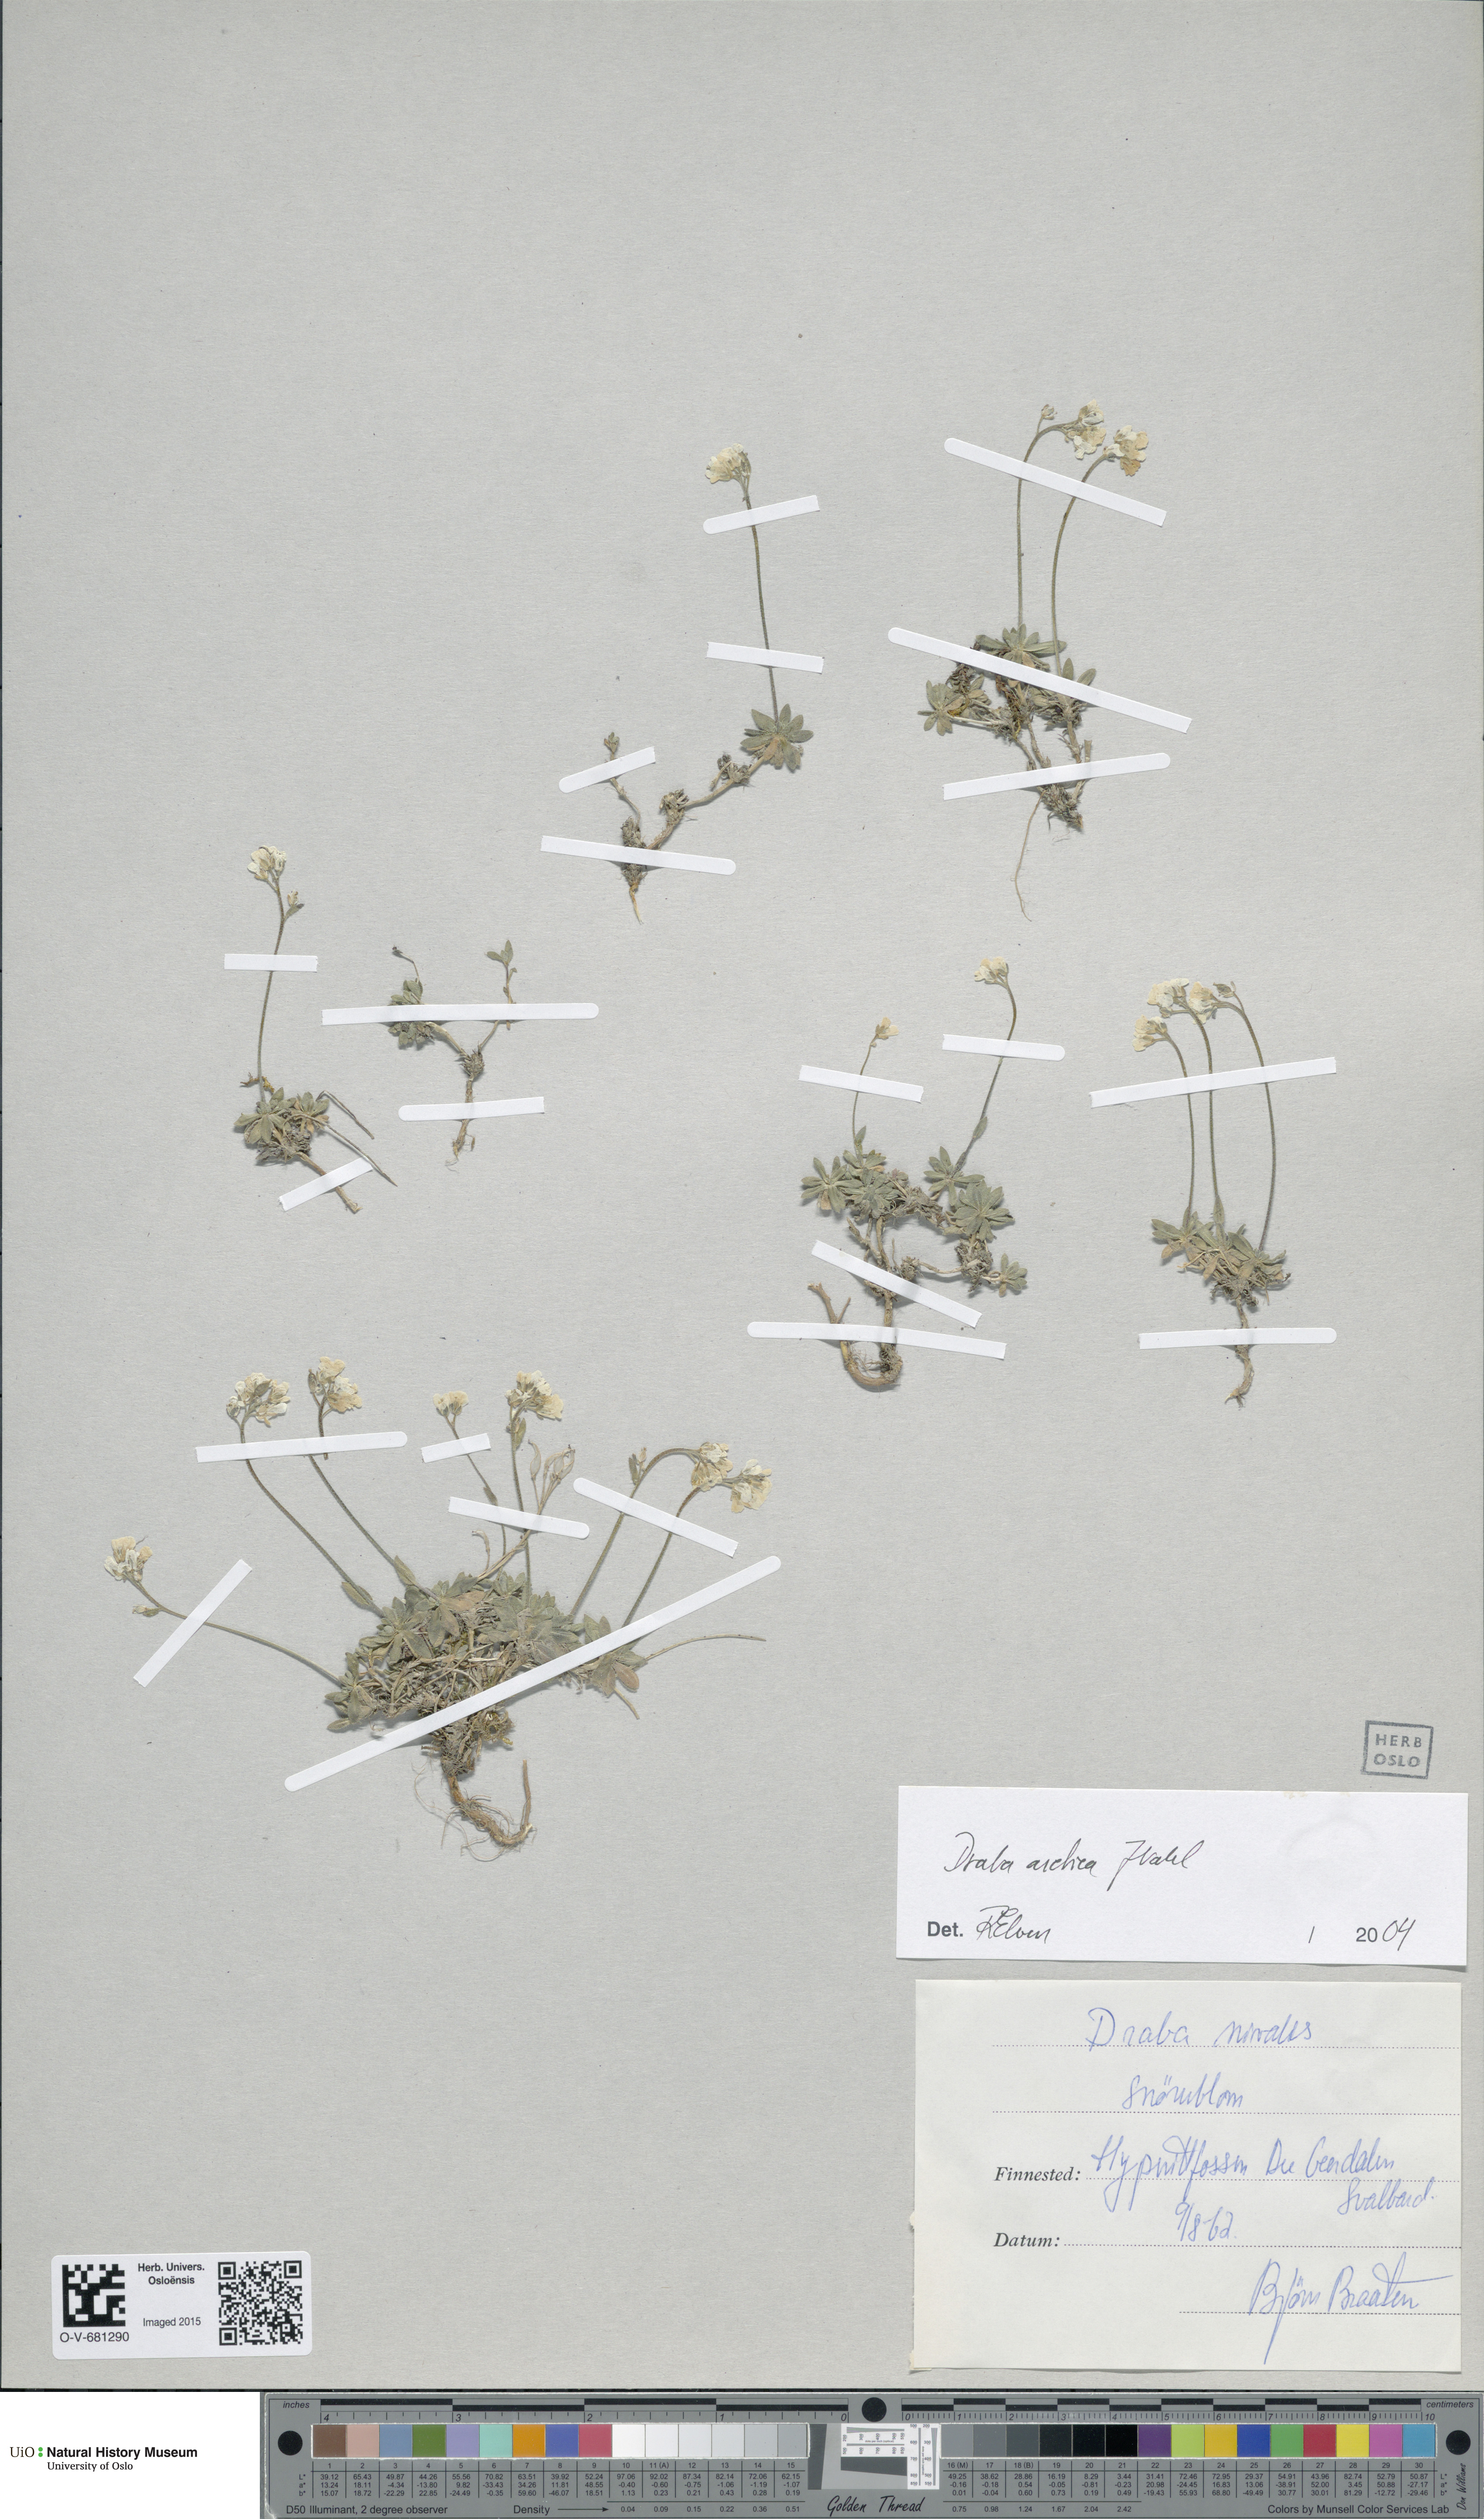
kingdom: Plantae
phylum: Tracheophyta
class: Magnoliopsida
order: Brassicales
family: Brassicaceae
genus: Draba
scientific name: Draba arctica
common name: Arctic draba
